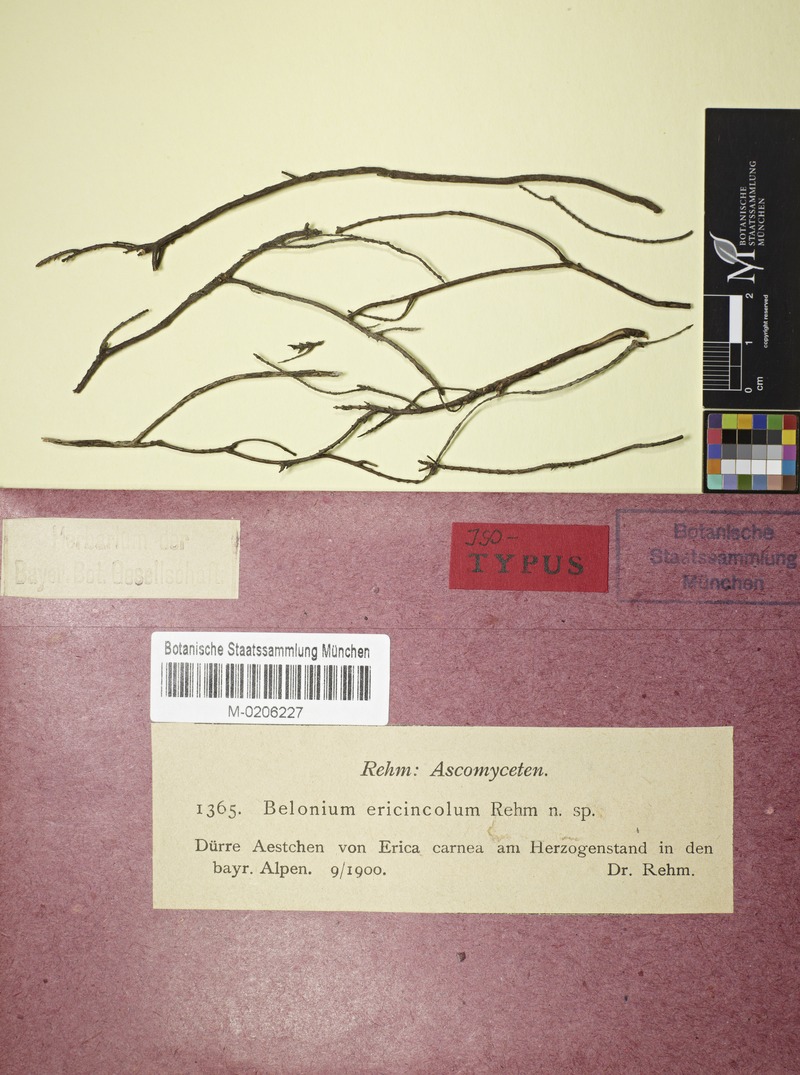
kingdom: Fungi
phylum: Ascomycota
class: Leotiomycetes
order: Helotiales
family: Ploettnerulaceae
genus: Belonium
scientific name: Belonium ericincola
